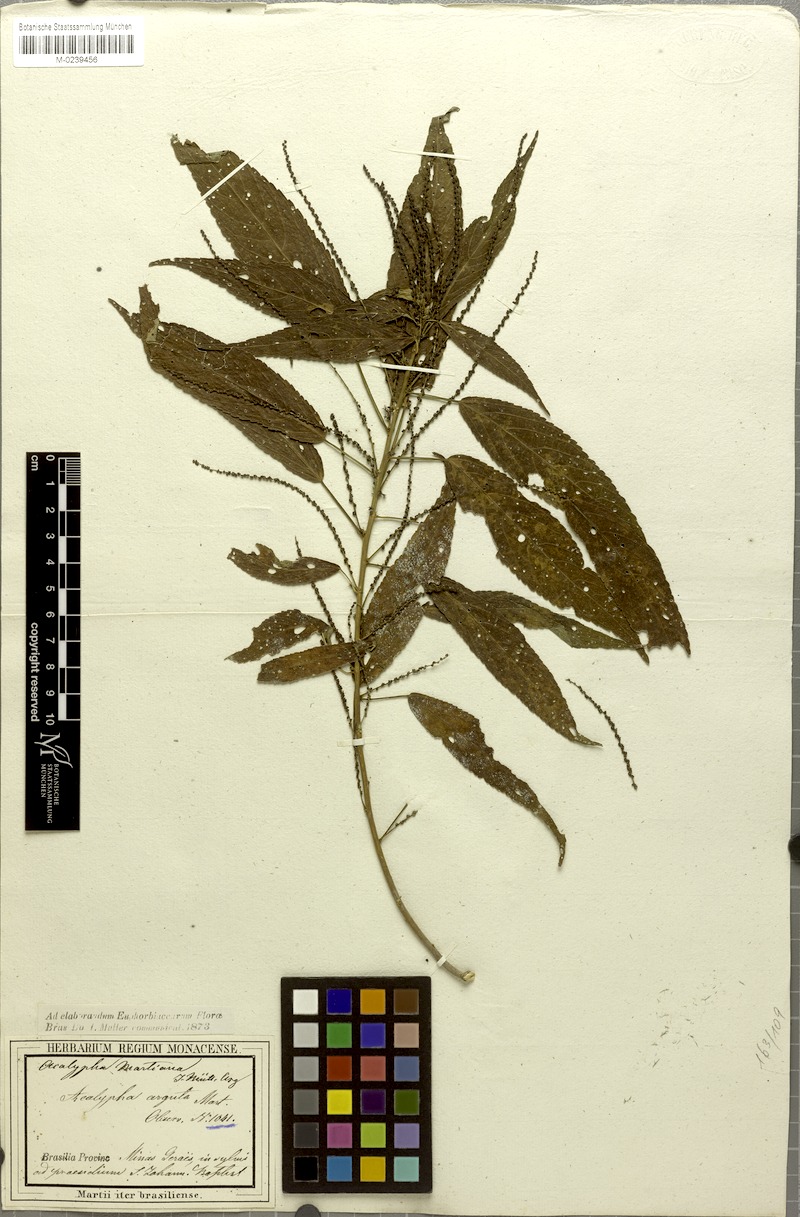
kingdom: Plantae
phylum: Tracheophyta
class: Magnoliopsida
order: Malpighiales
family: Euphorbiaceae
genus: Acalypha
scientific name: Acalypha martiana
